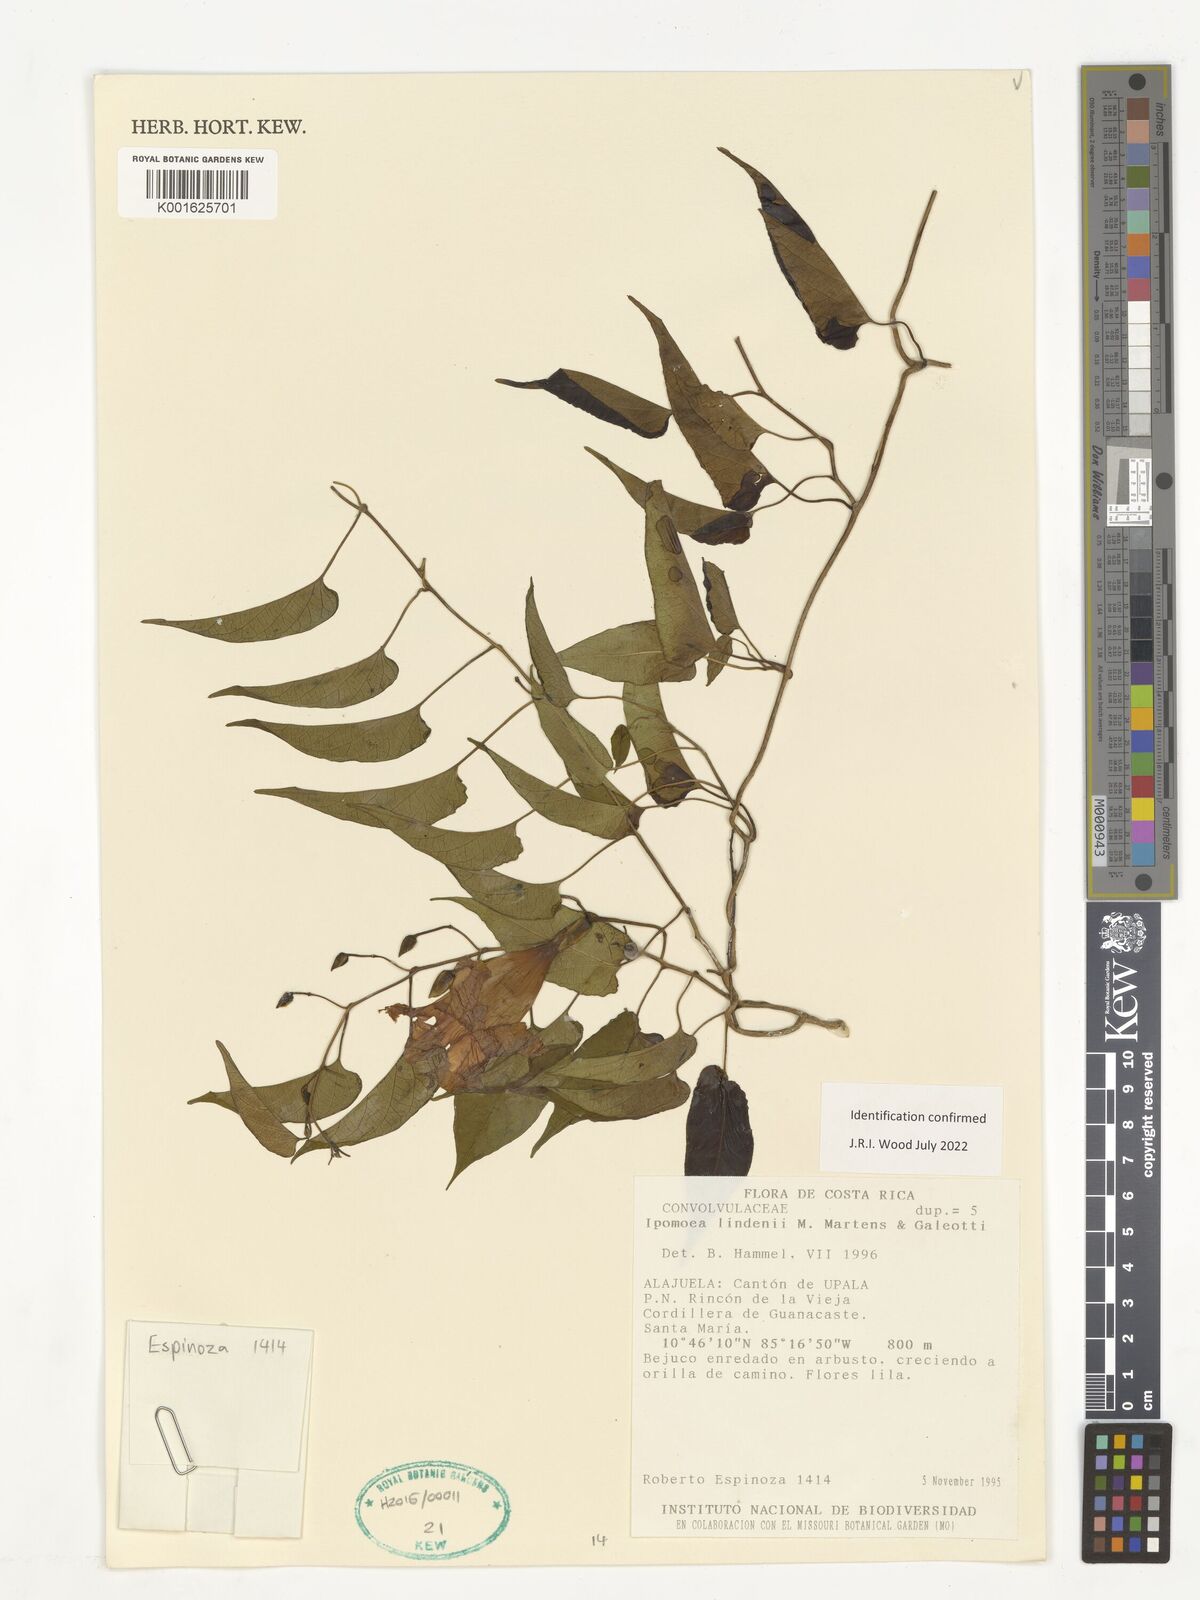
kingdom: Plantae
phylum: Tracheophyta
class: Magnoliopsida
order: Solanales
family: Convolvulaceae
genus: Ipomoea
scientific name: Ipomoea lindenii
